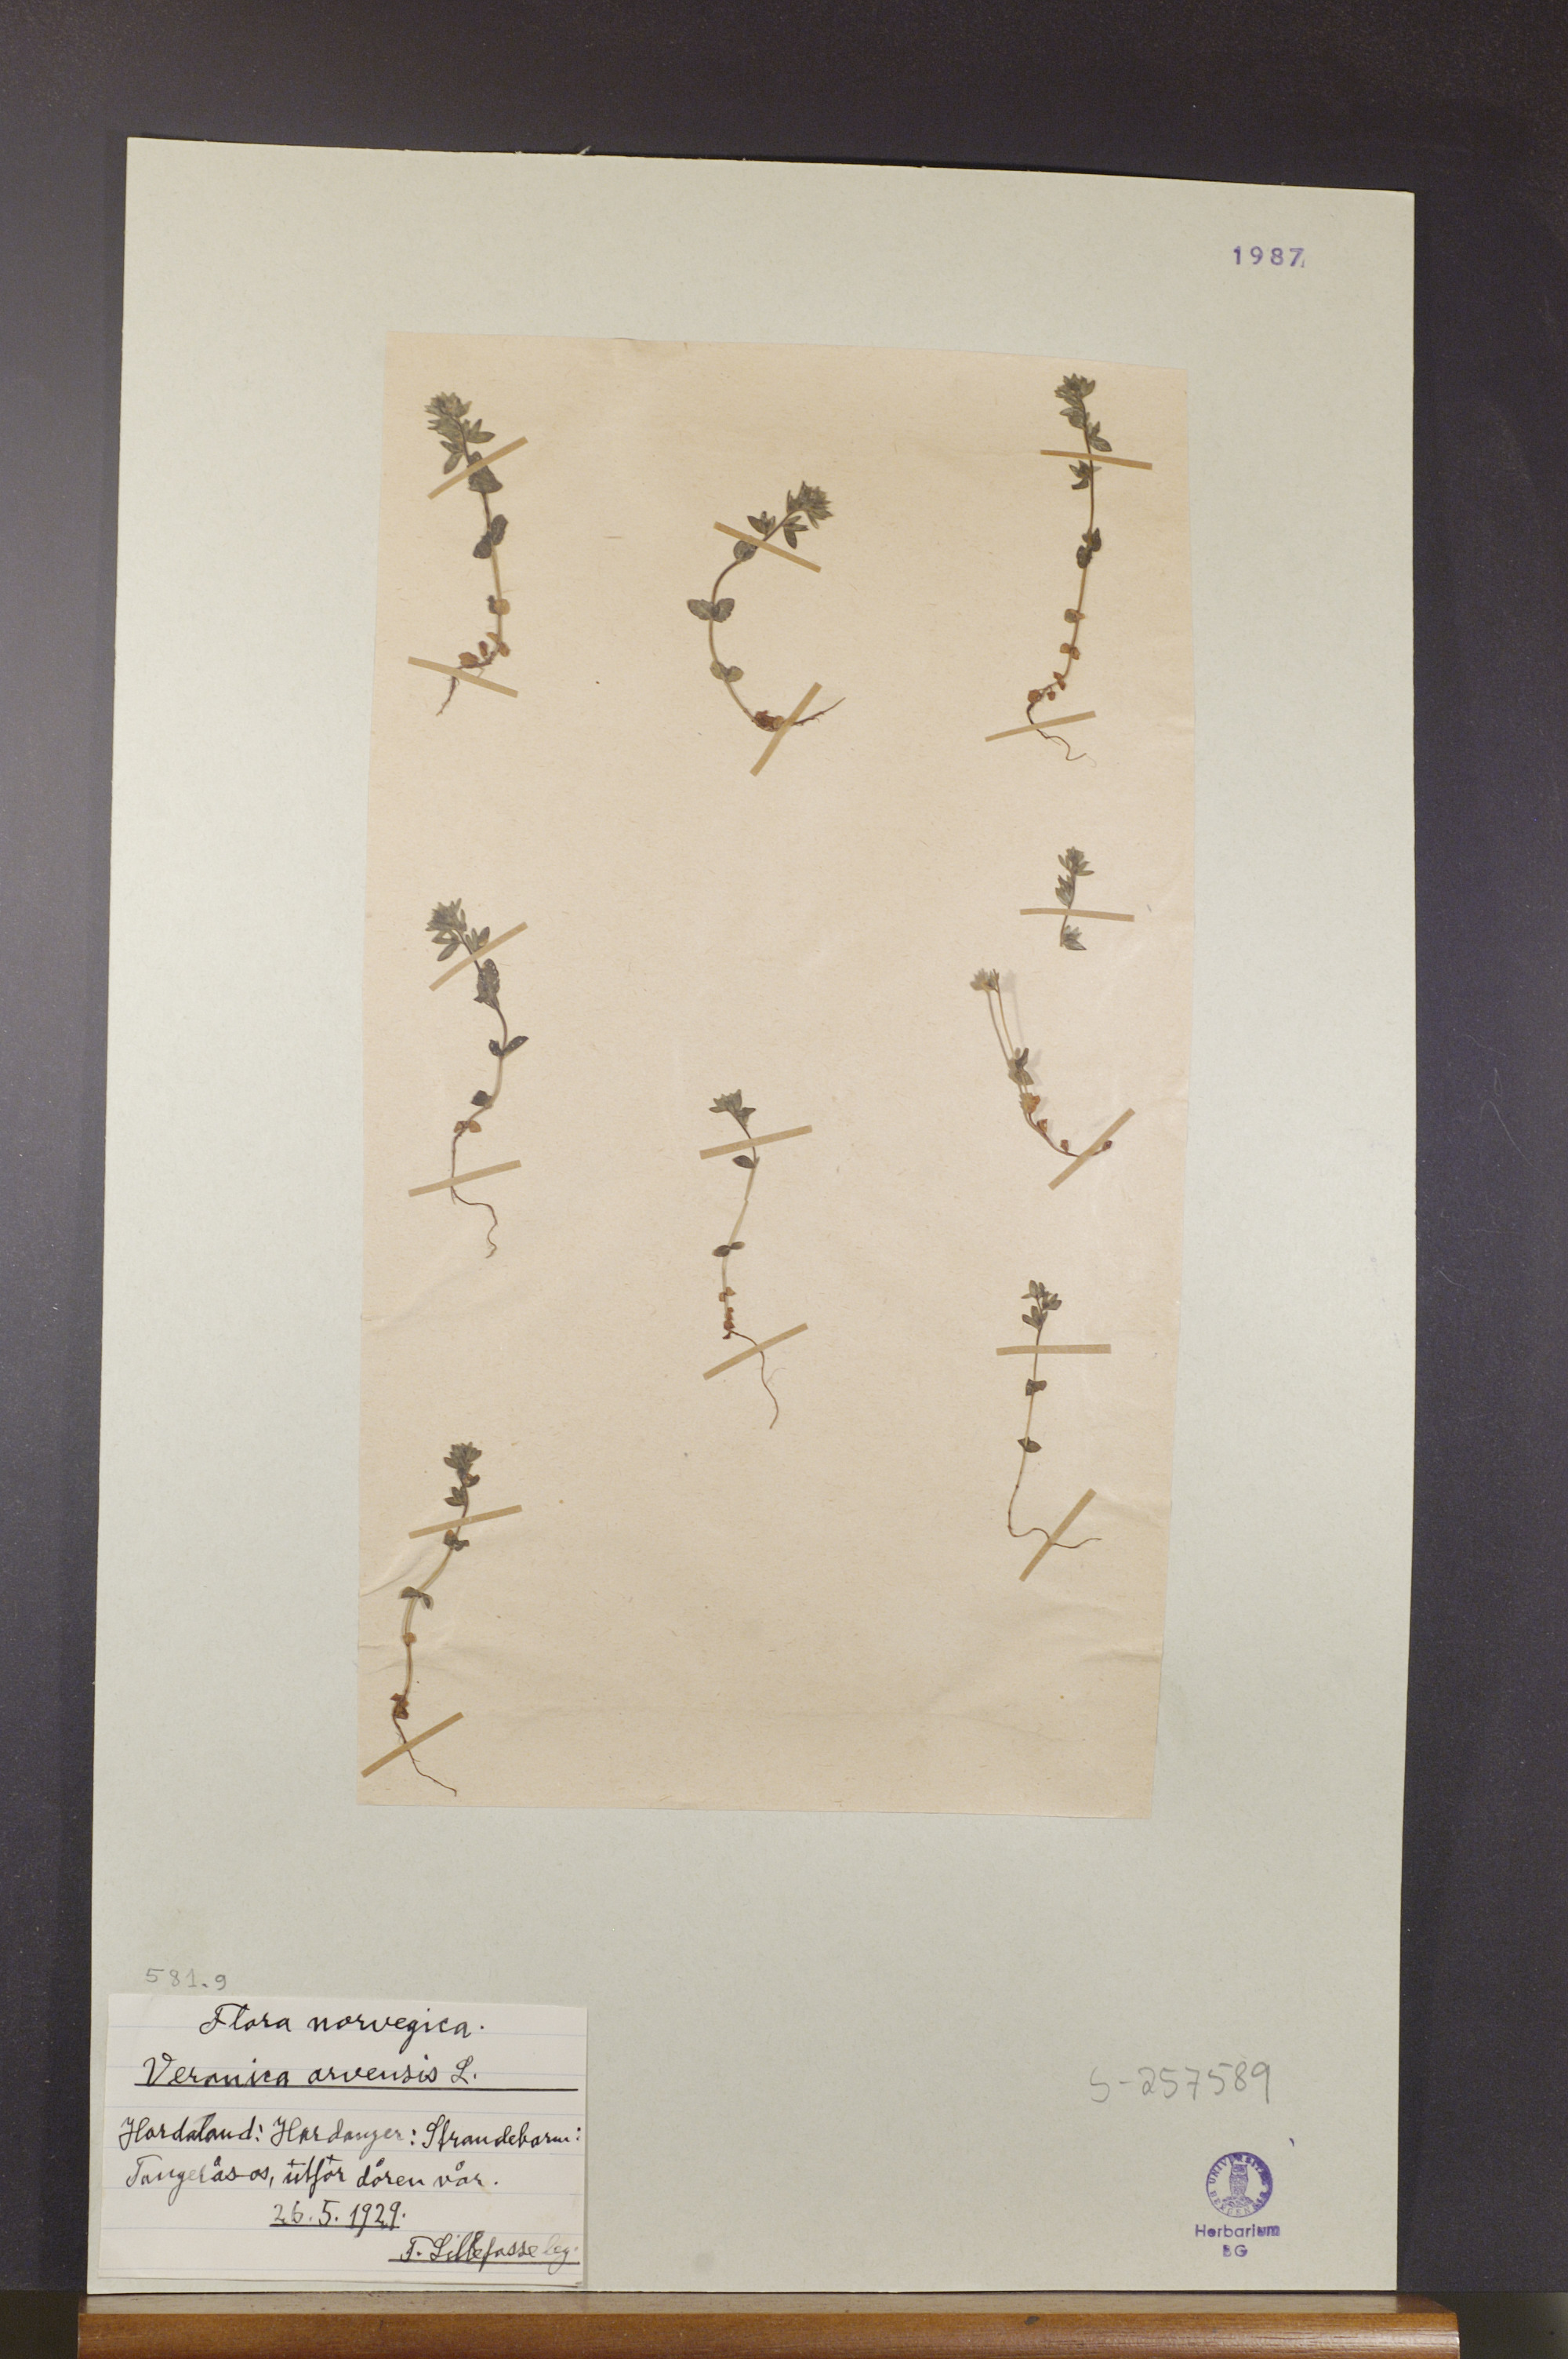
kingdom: Plantae
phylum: Tracheophyta
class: Magnoliopsida
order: Lamiales
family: Plantaginaceae
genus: Veronica
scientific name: Veronica arvensis
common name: Corn speedwell
